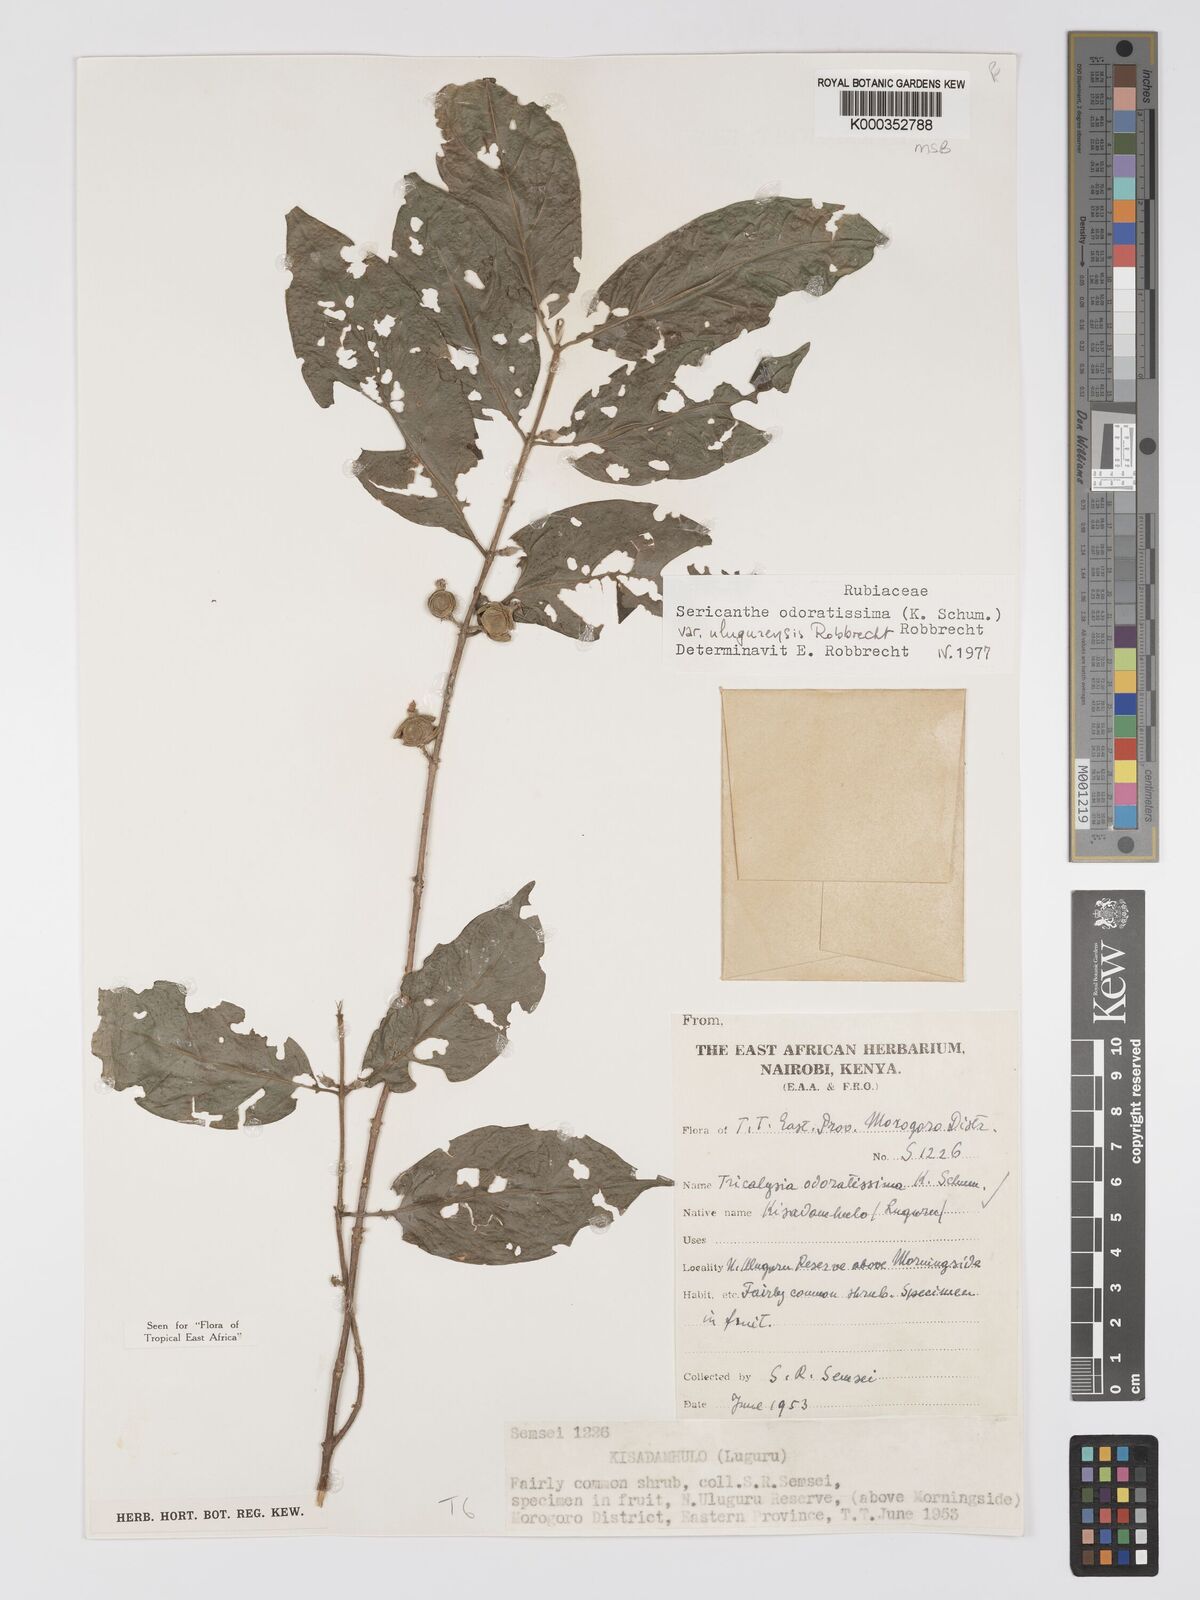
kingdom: Plantae
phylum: Tracheophyta
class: Magnoliopsida
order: Gentianales
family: Rubiaceae
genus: Sericanthe
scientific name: Sericanthe odoratissima
